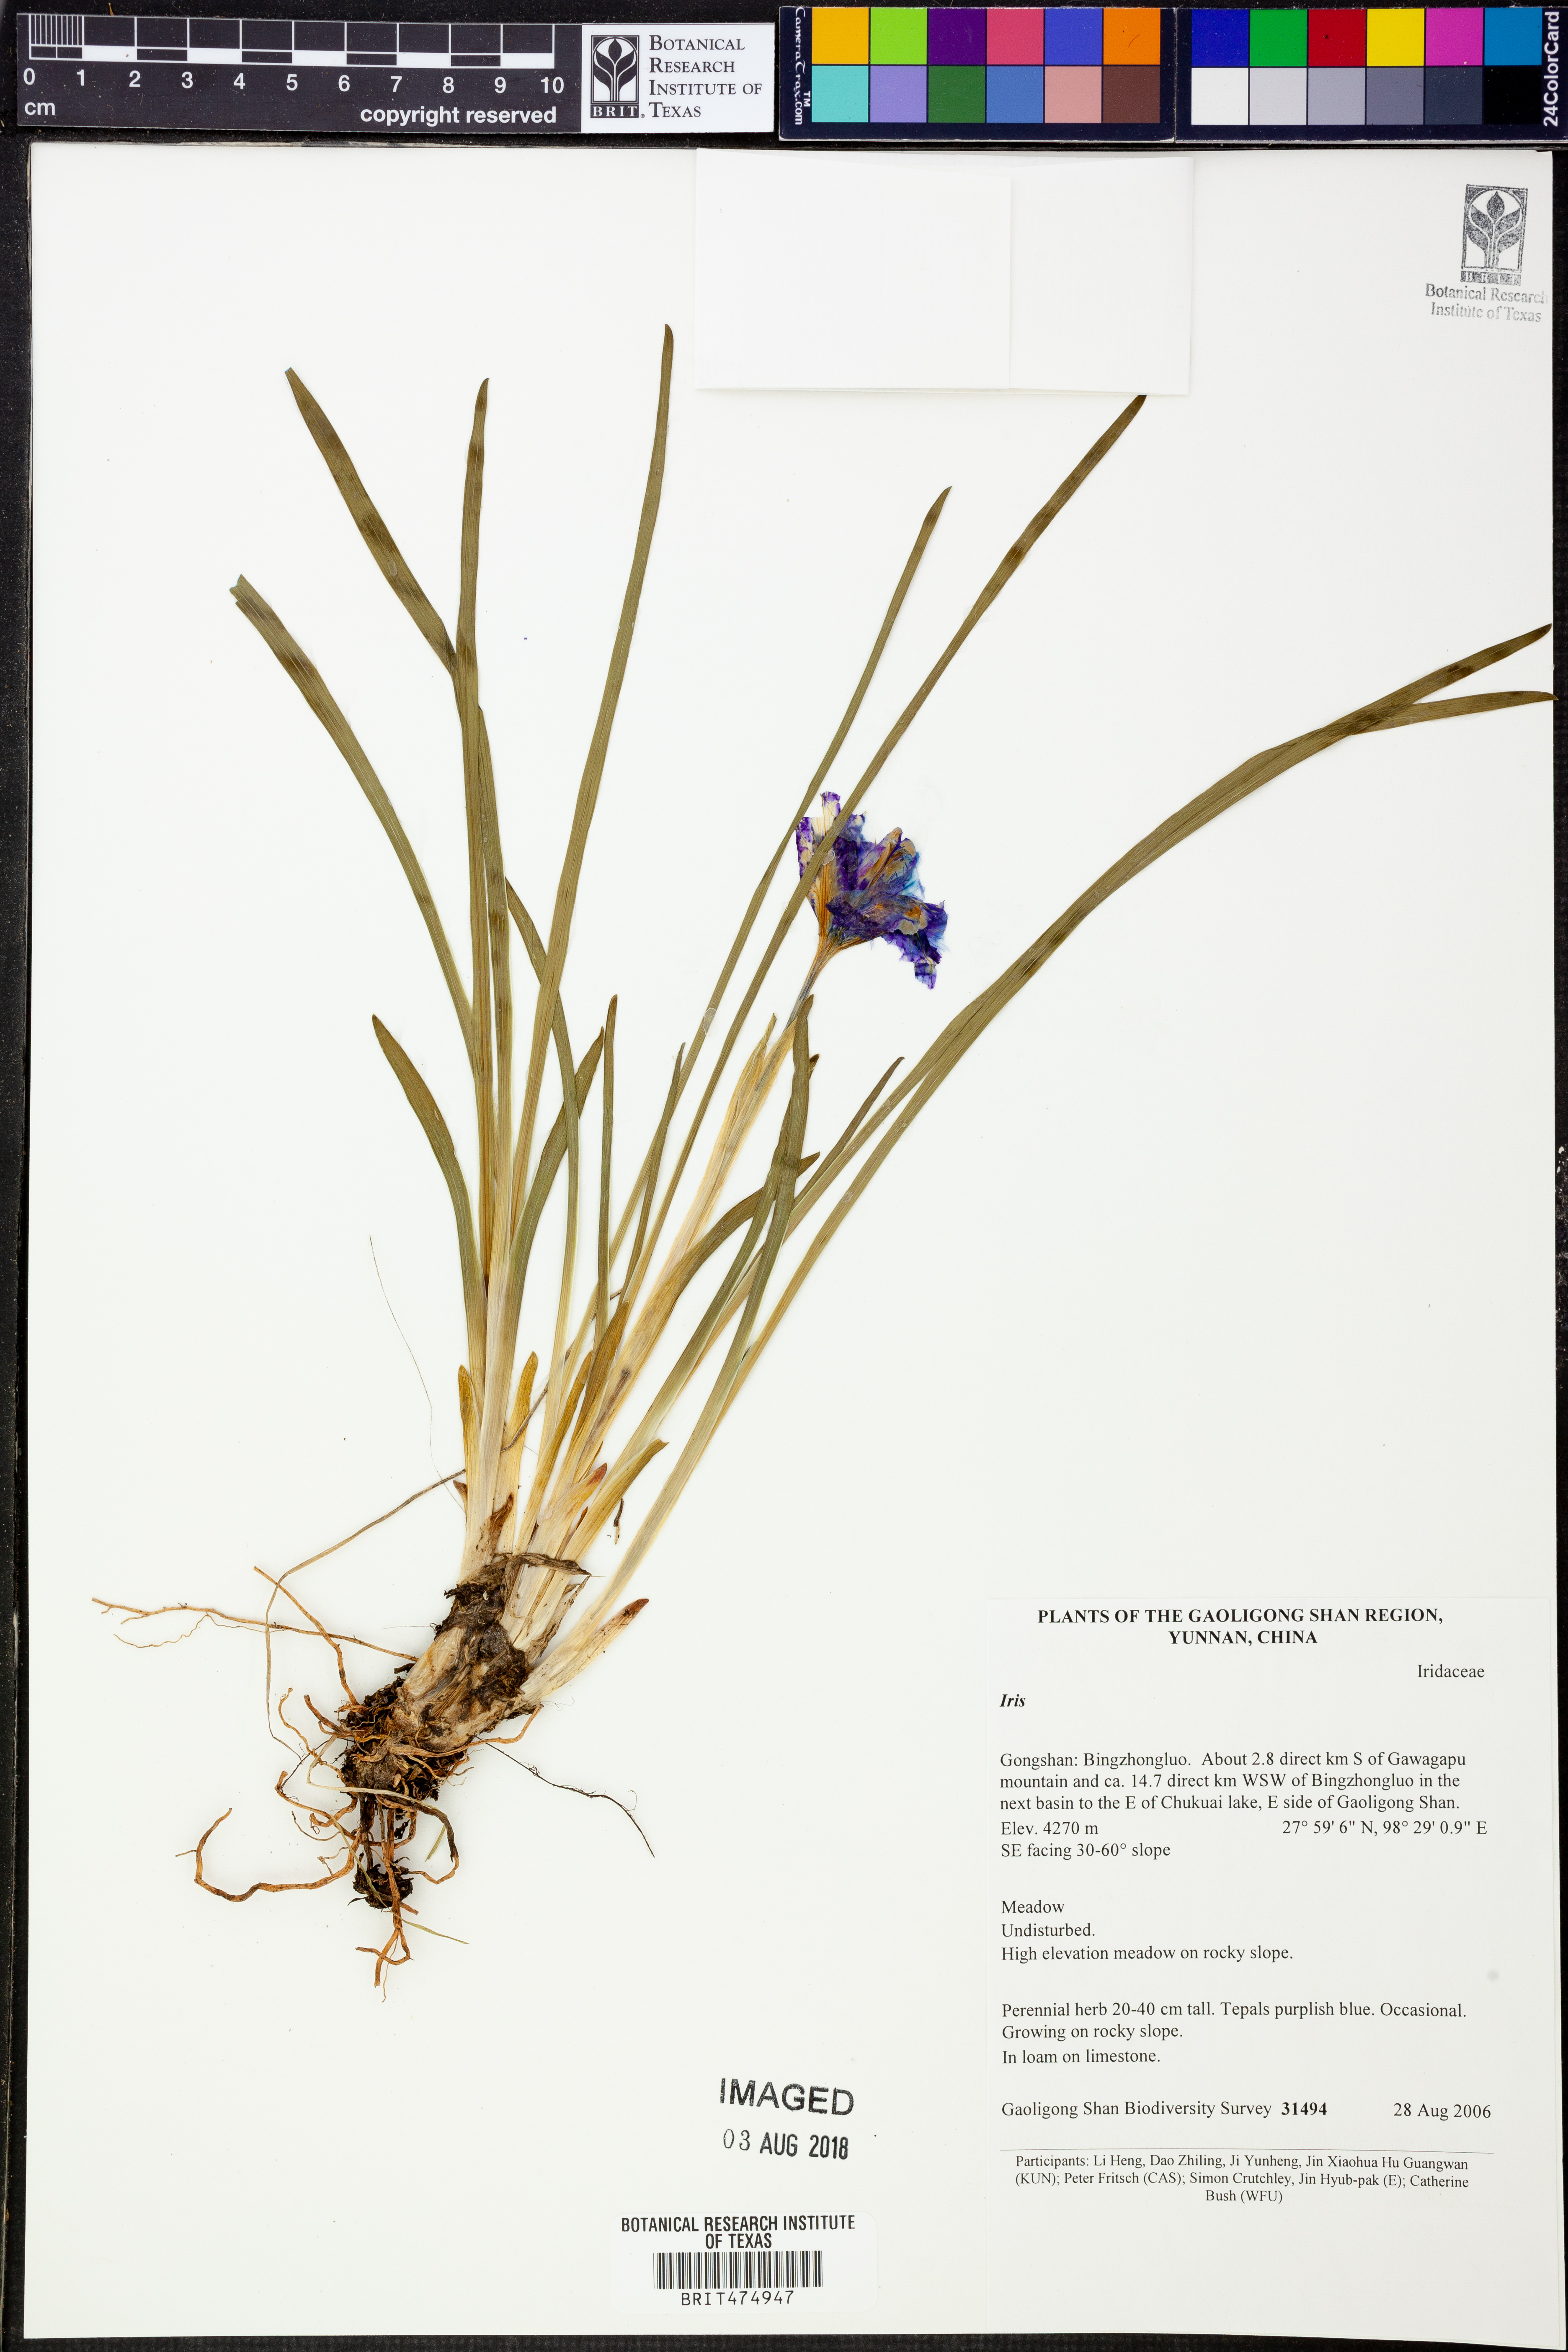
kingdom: Plantae
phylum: Tracheophyta
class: Liliopsida
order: Asparagales
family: Iridaceae
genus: Iris
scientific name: Iris
